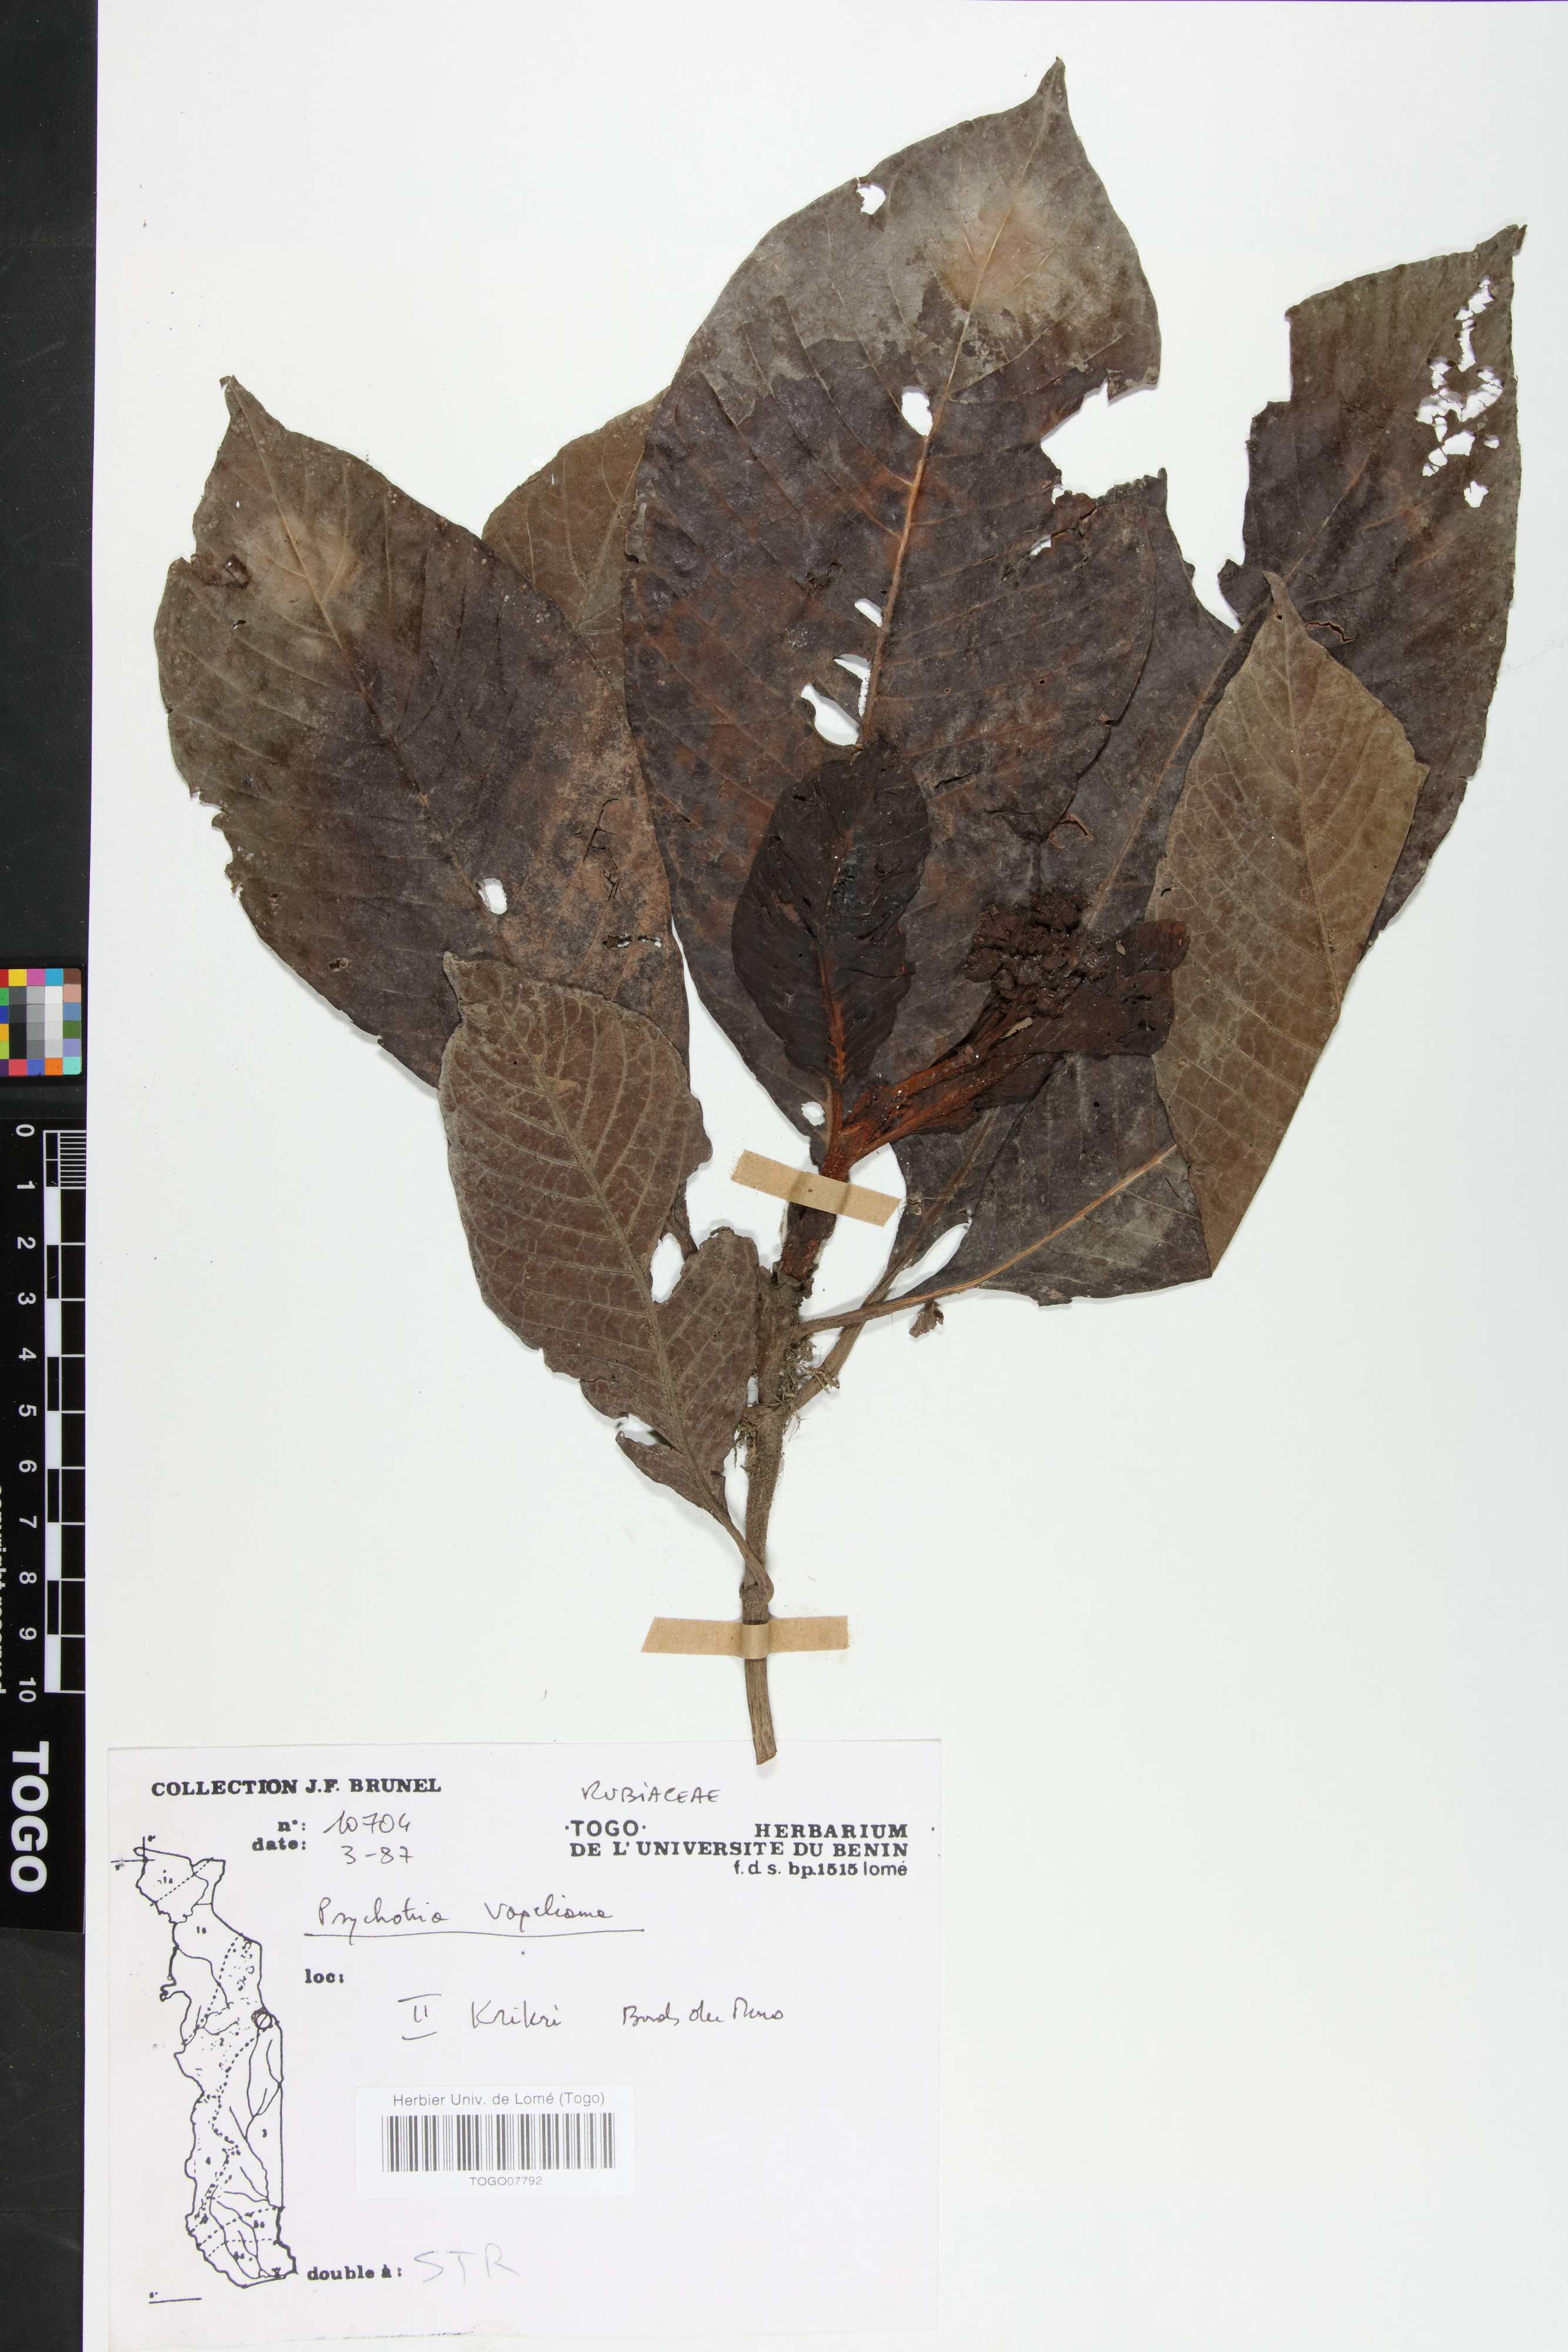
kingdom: Plantae
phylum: Tracheophyta
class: Magnoliopsida
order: Gentianales
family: Rubiaceae
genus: Psychotria
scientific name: Psychotria vogeliana
